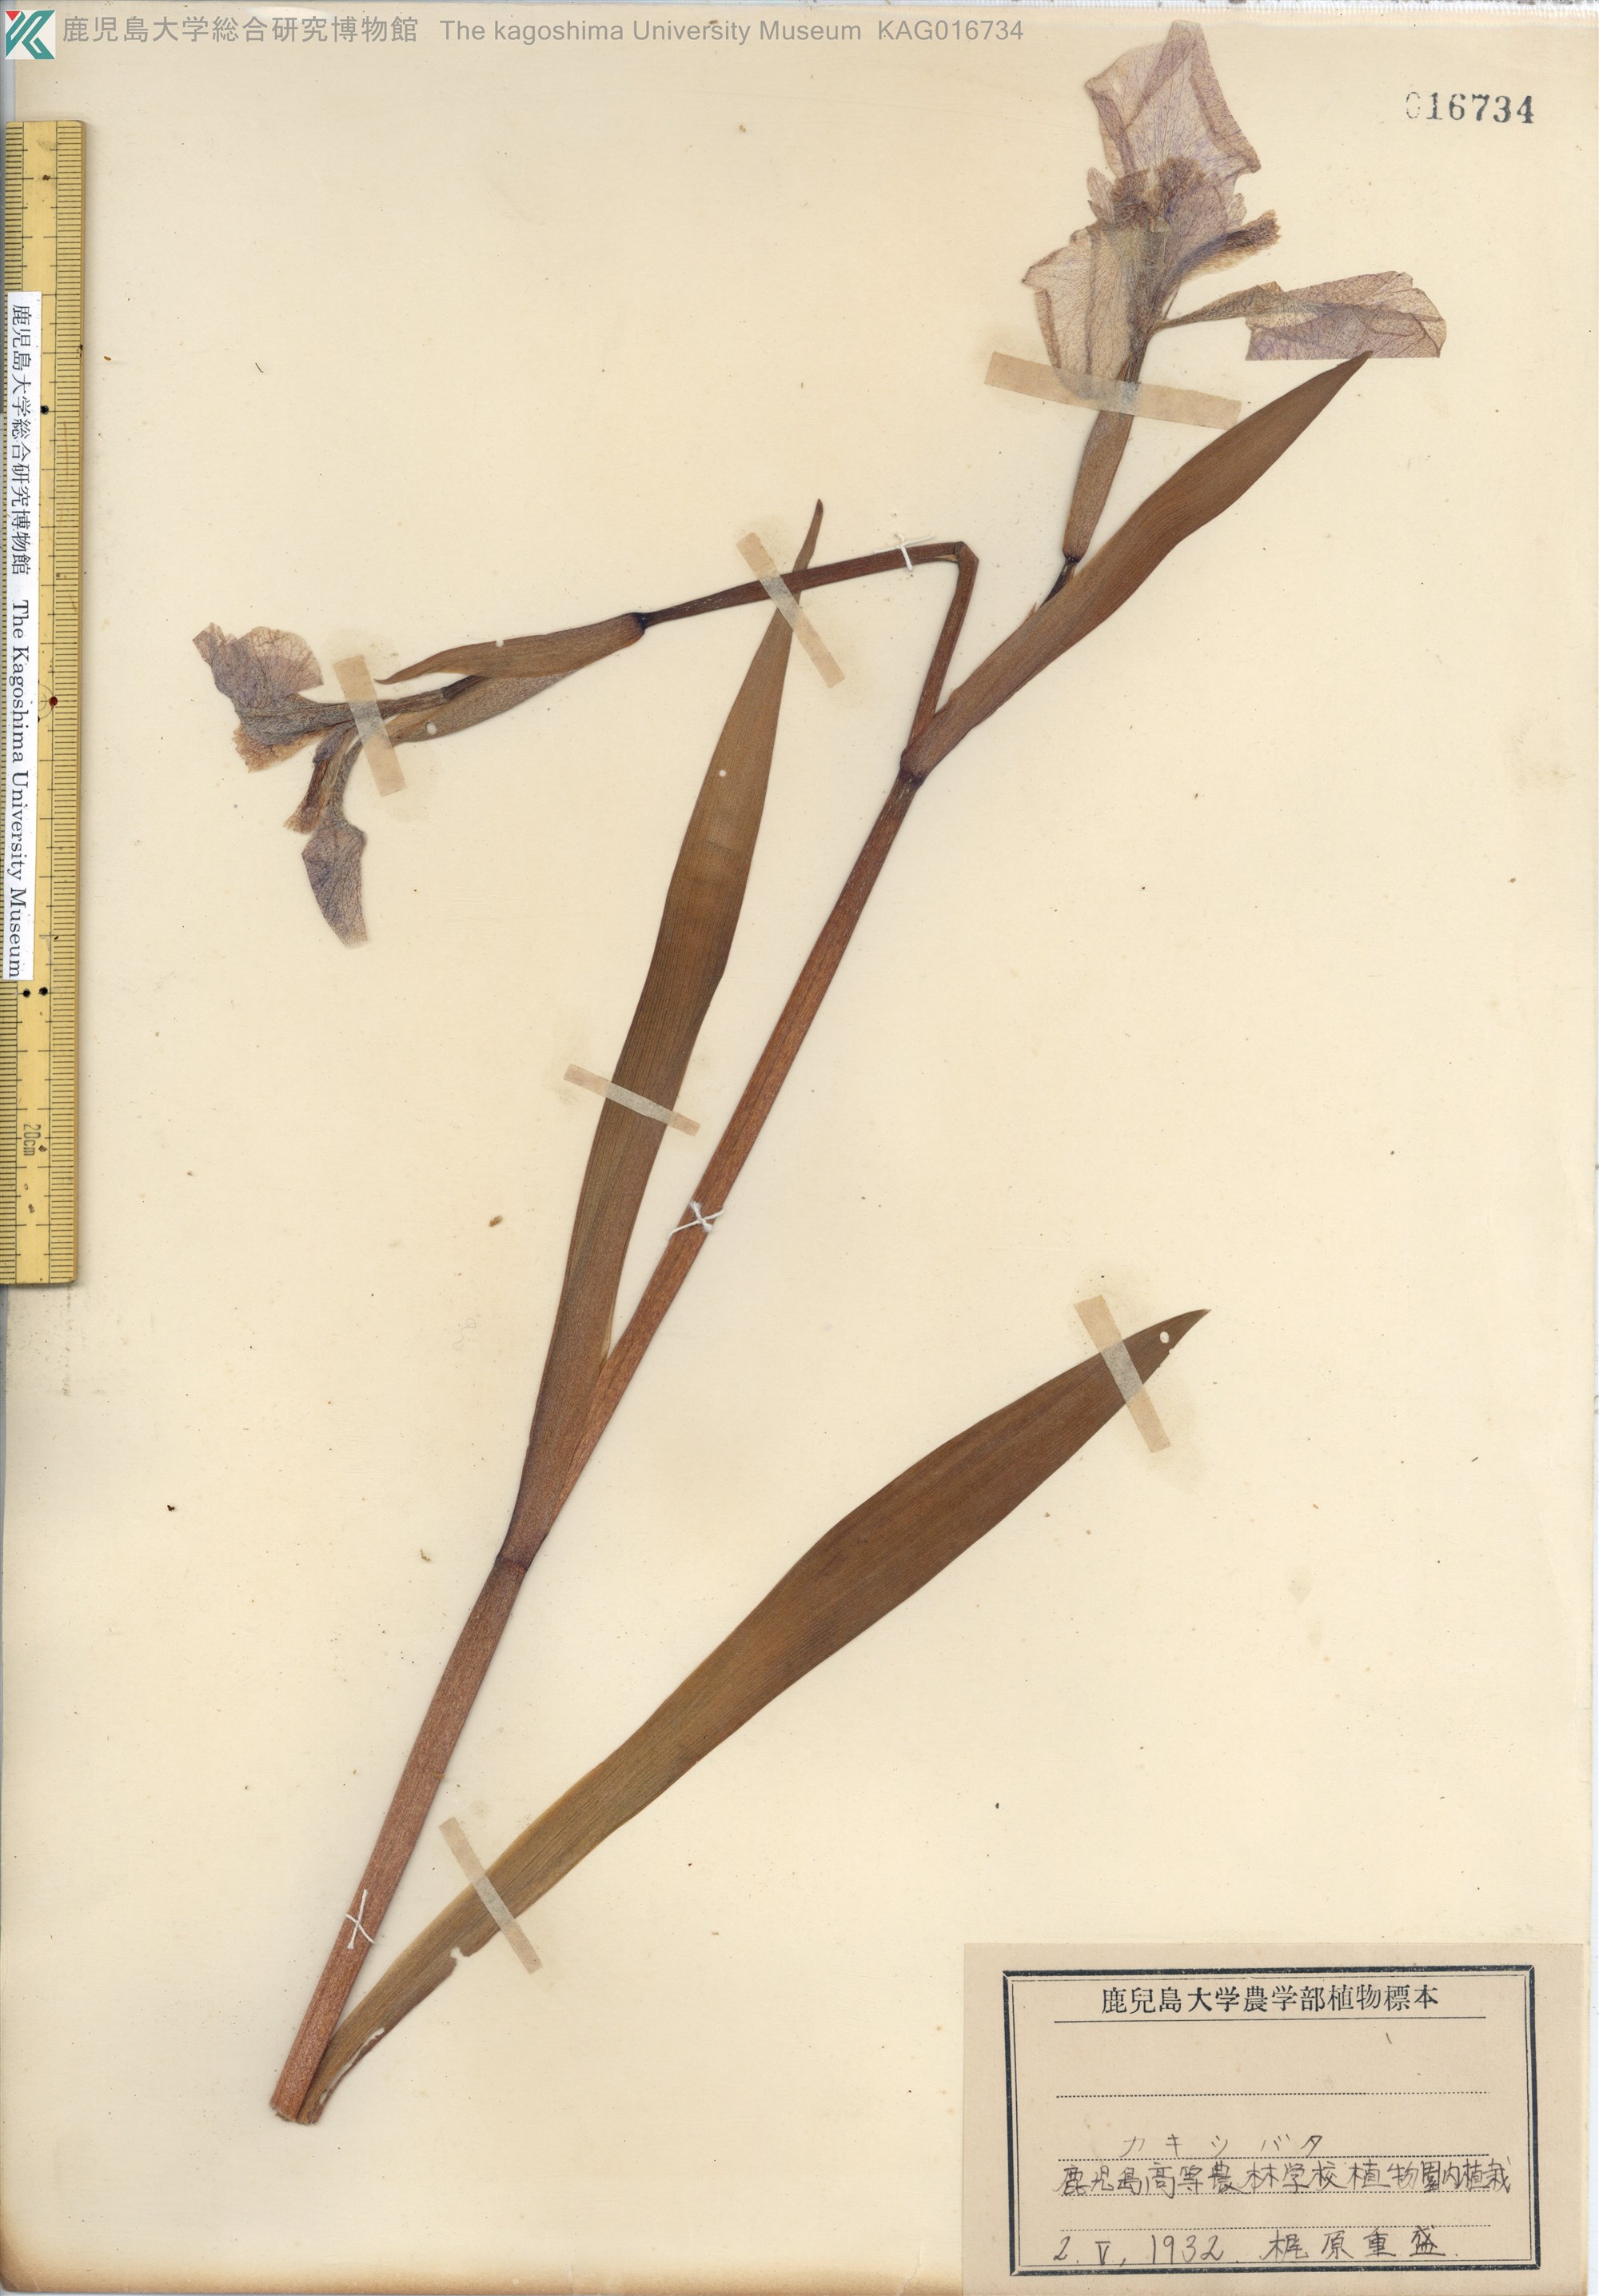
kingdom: Plantae
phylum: Tracheophyta
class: Liliopsida
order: Asparagales
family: Iridaceae
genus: Iris
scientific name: Iris laevigata
